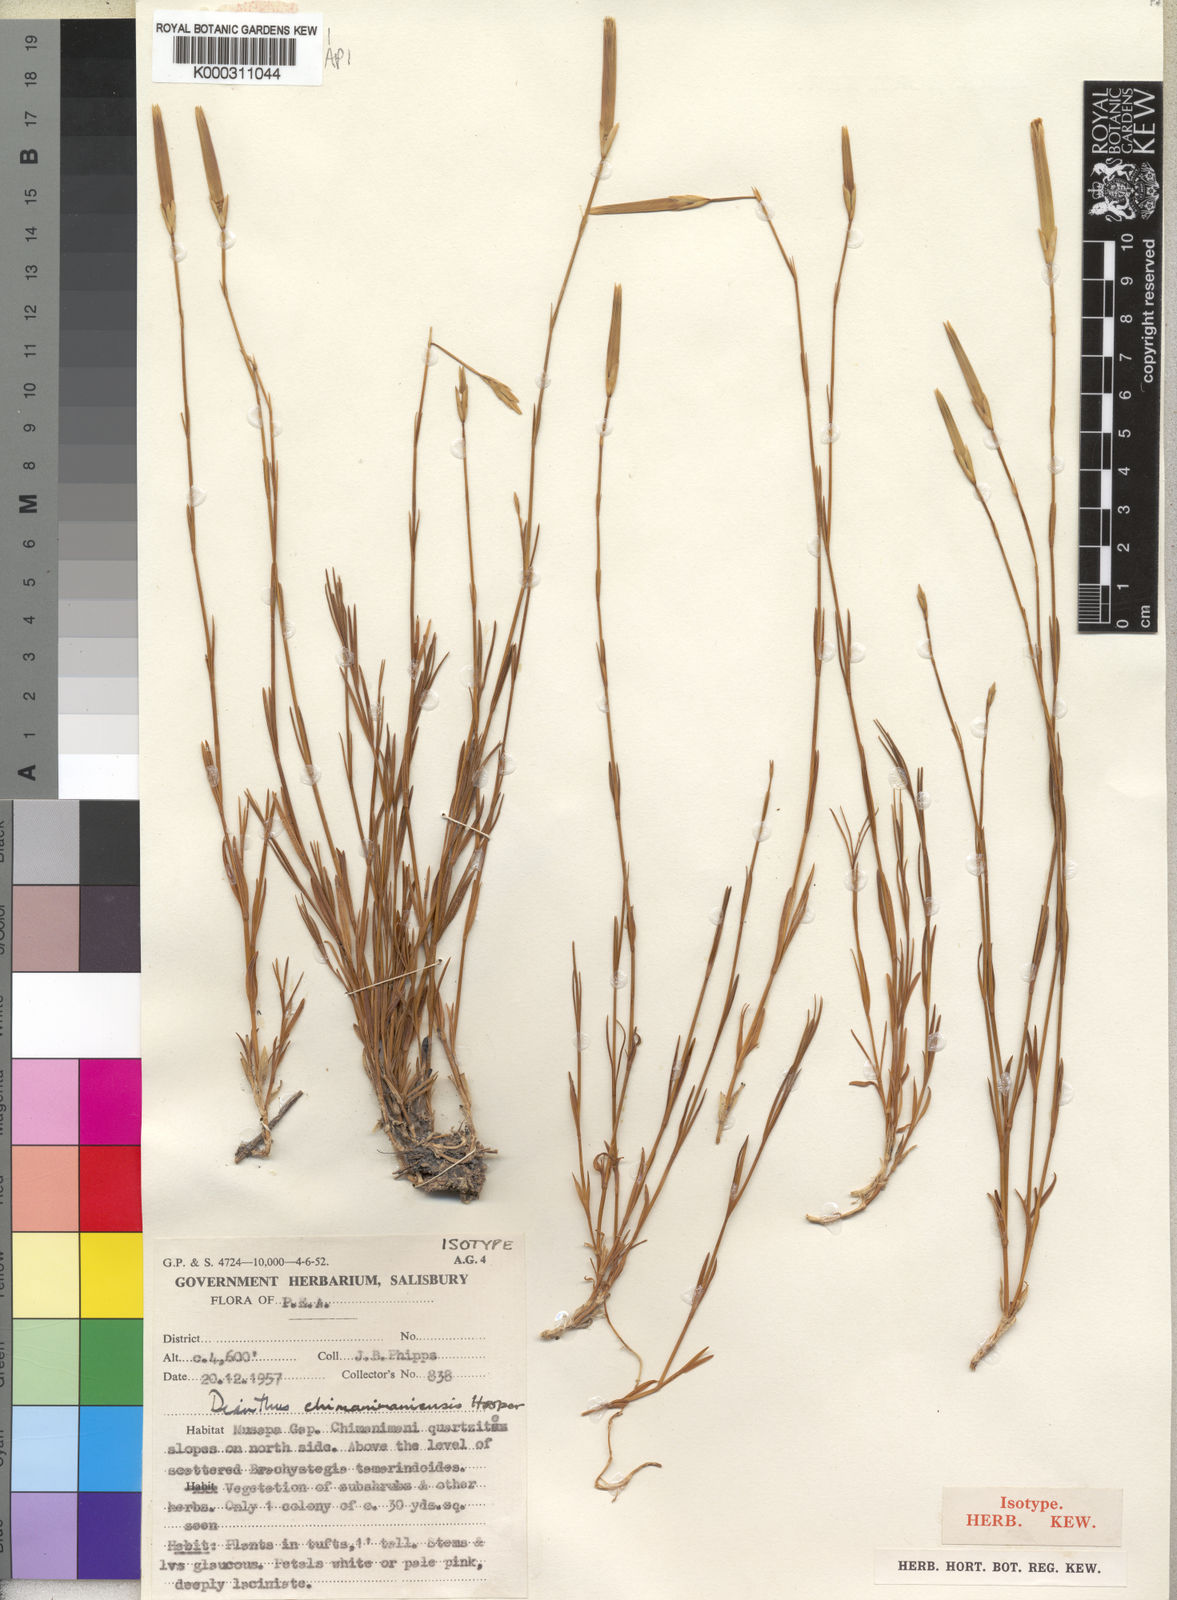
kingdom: Plantae
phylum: Tracheophyta
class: Magnoliopsida
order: Caryophyllales
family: Caryophyllaceae
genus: Dianthus
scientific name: Dianthus chimanimaniensis
